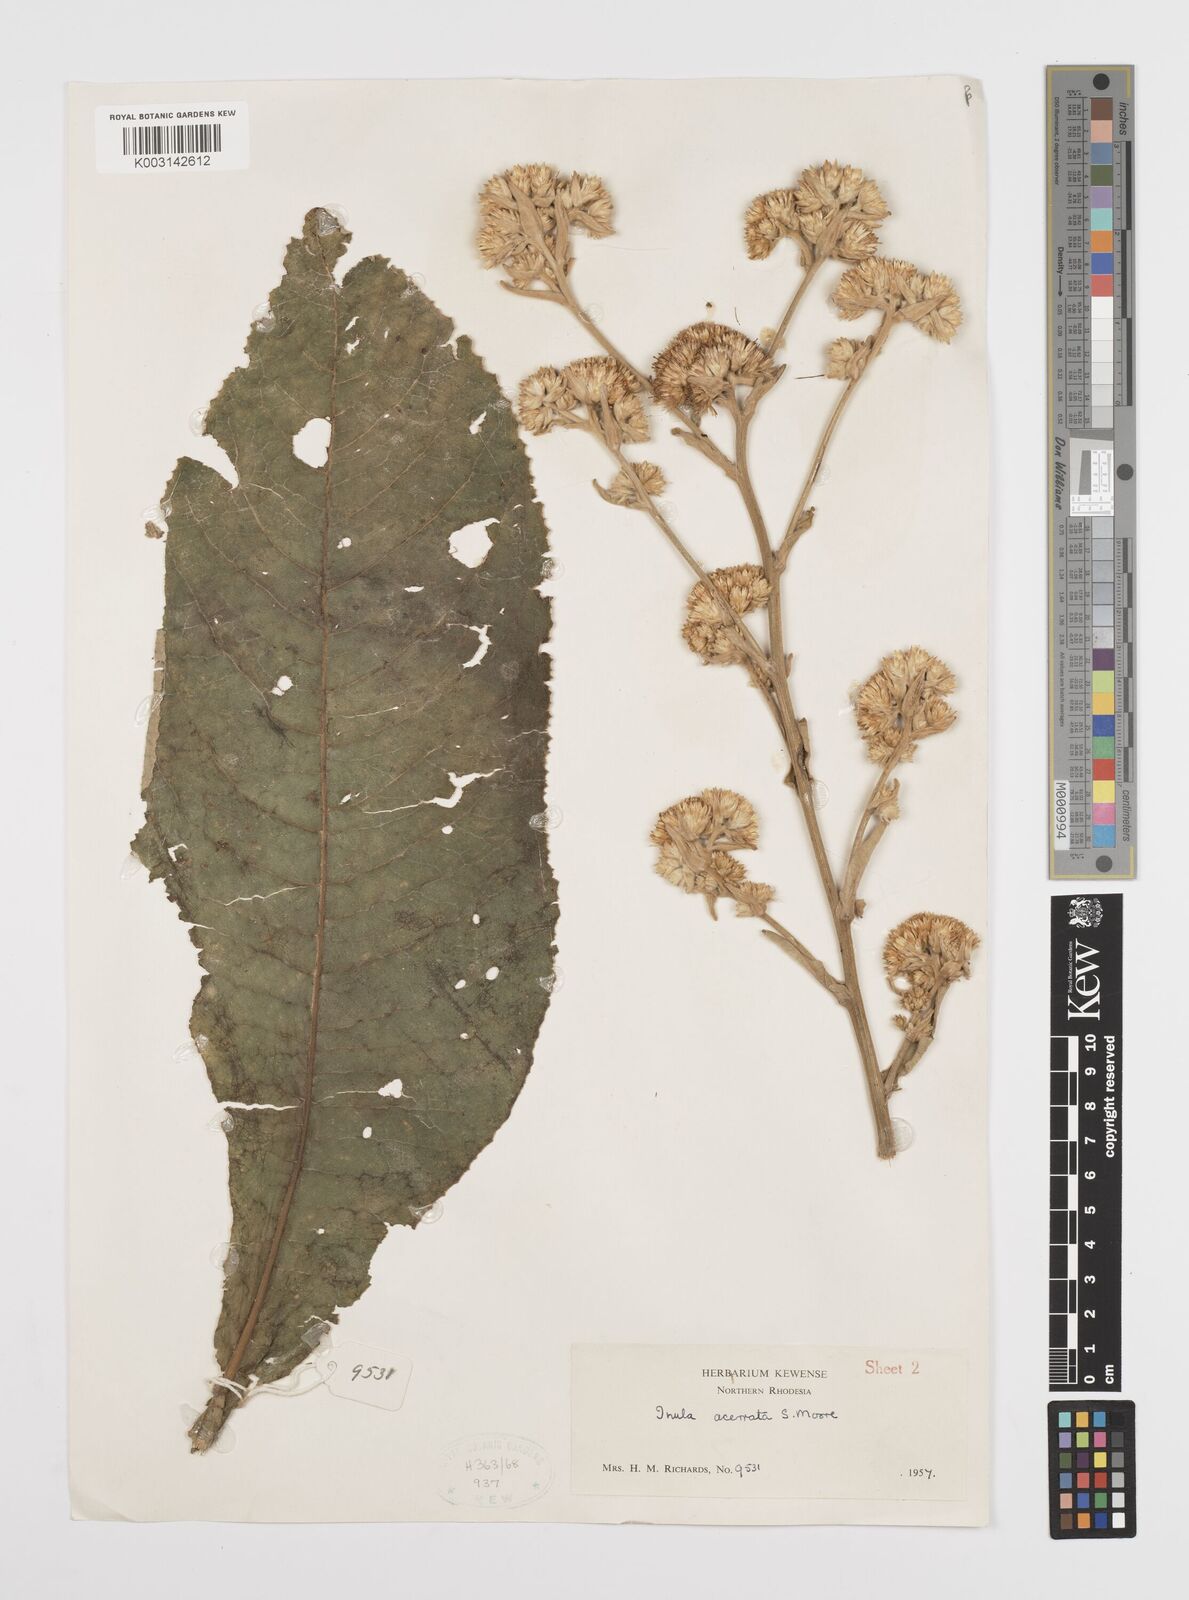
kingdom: Plantae
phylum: Tracheophyta
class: Magnoliopsida
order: Asterales
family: Asteraceae
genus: Inula
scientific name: Inula glomerata
